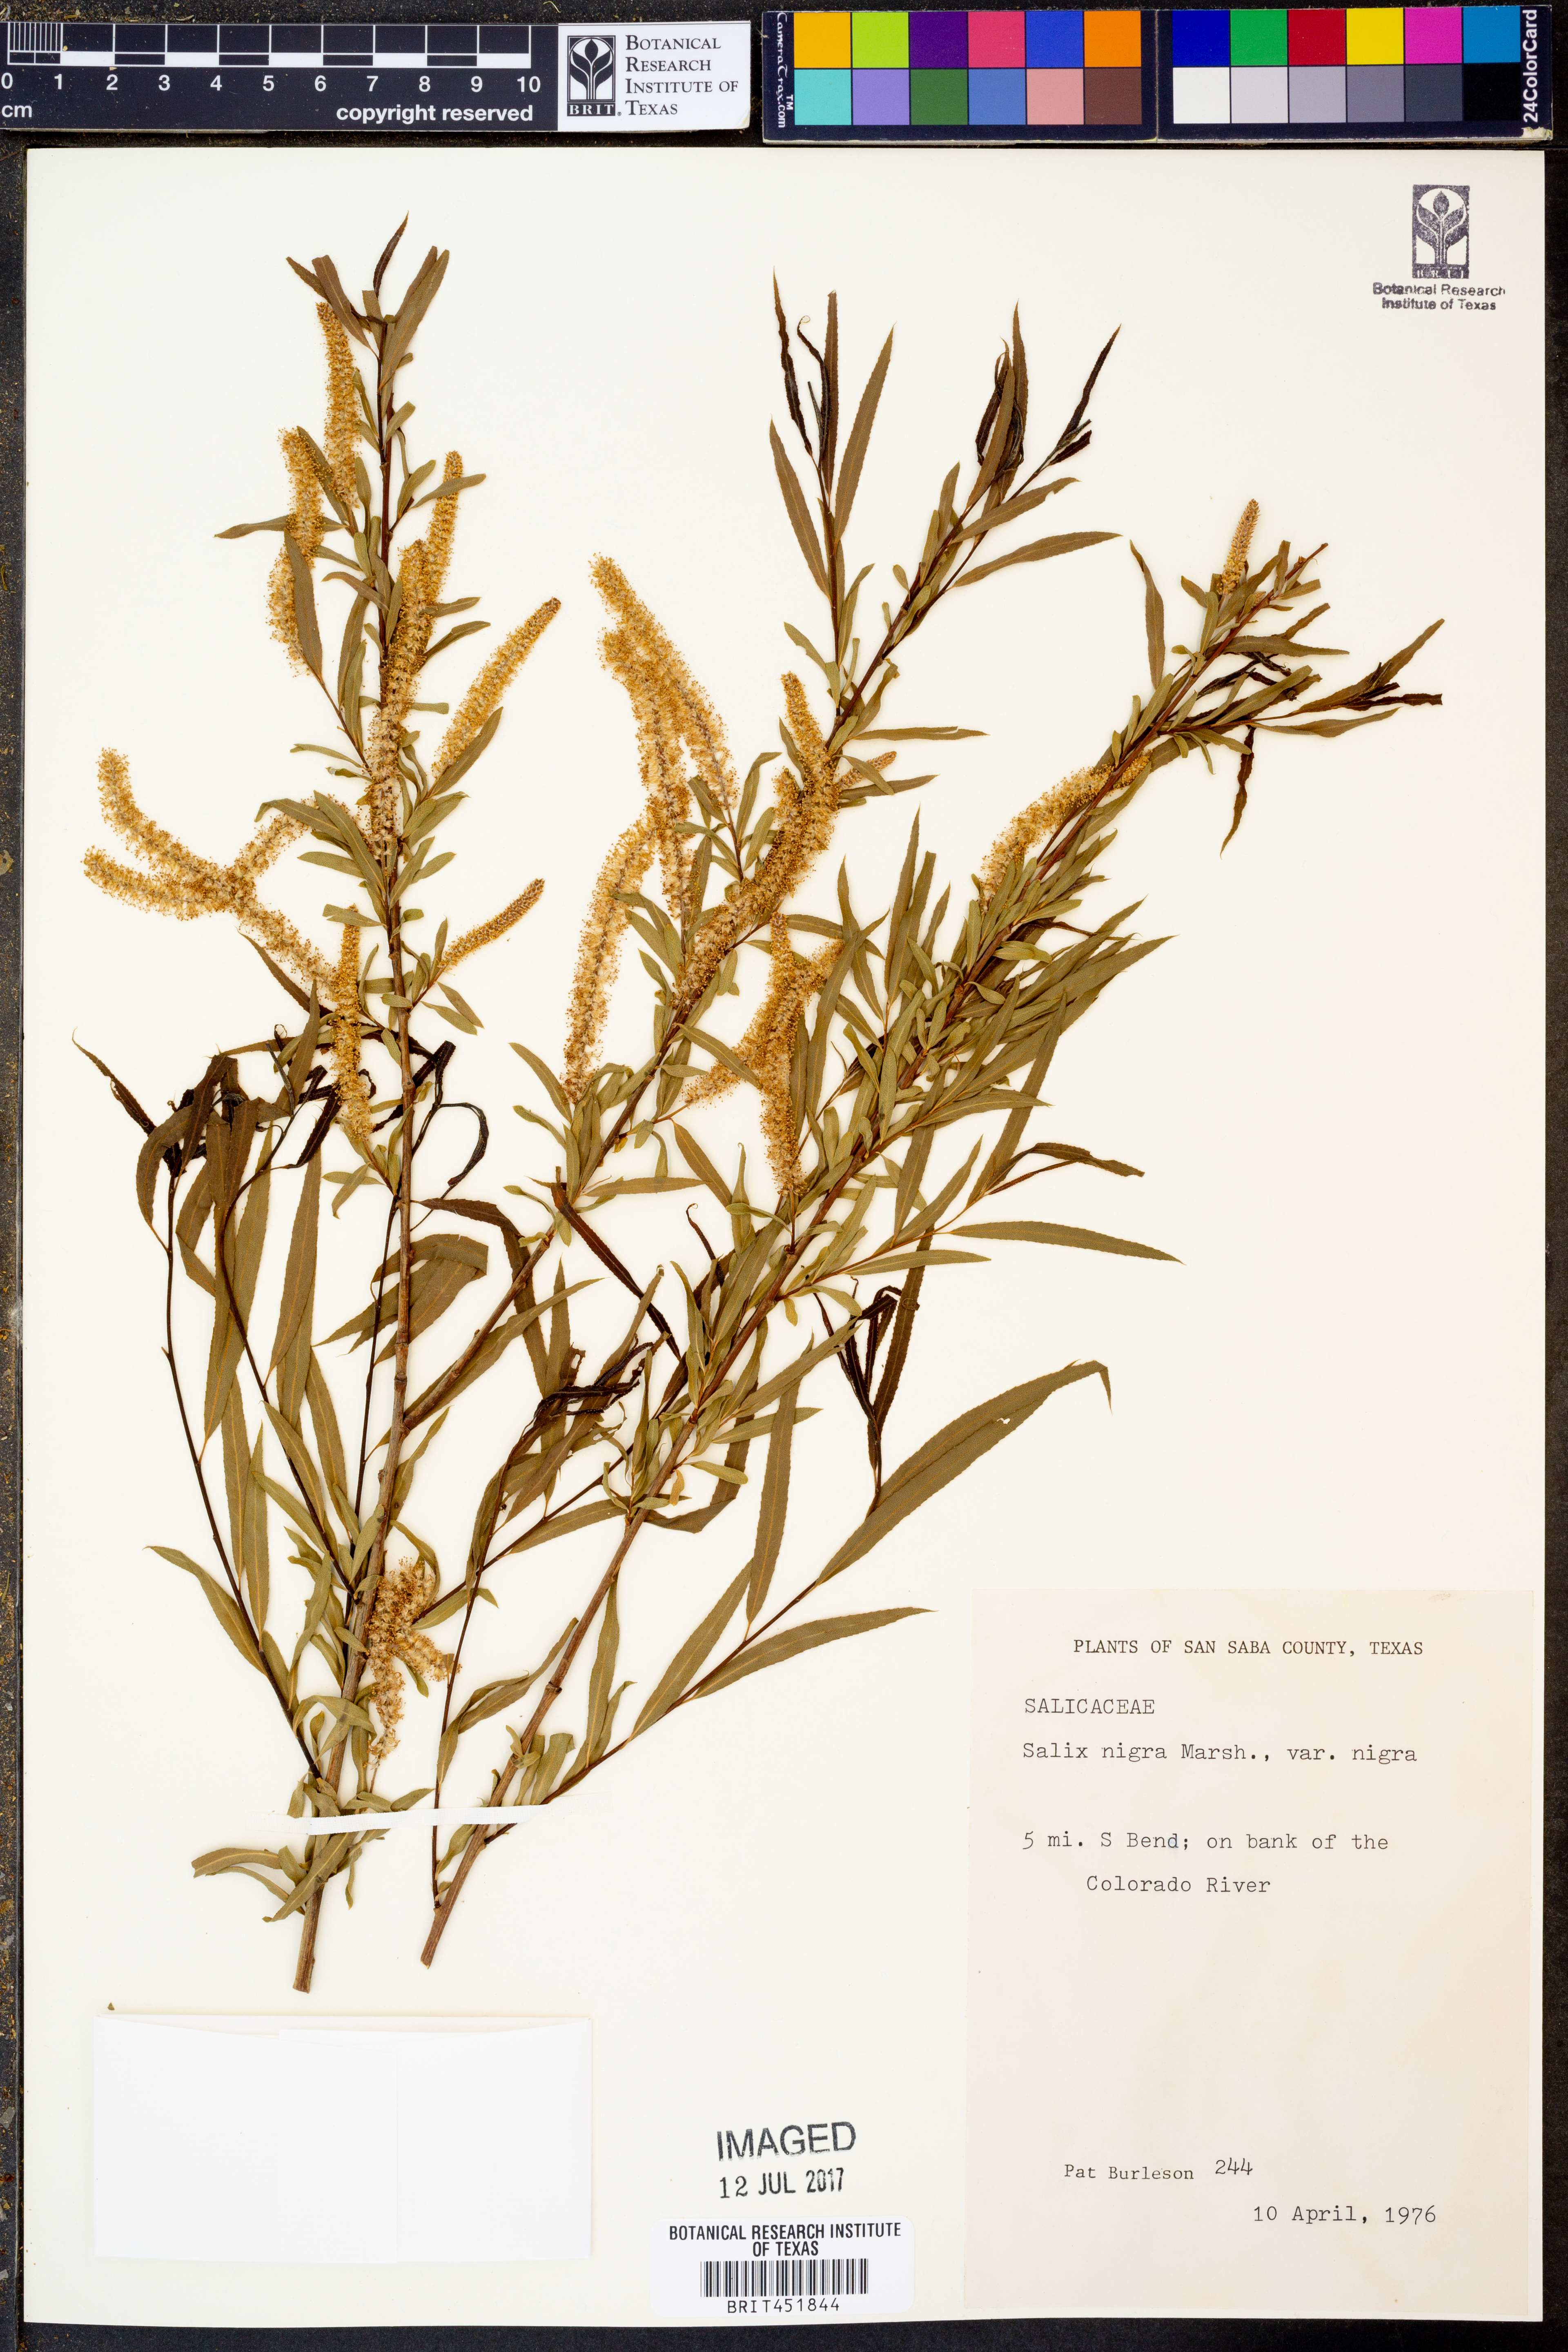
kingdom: Plantae
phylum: Tracheophyta
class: Magnoliopsida
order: Malpighiales
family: Salicaceae
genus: Salix
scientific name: Salix nigra
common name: Black willow
